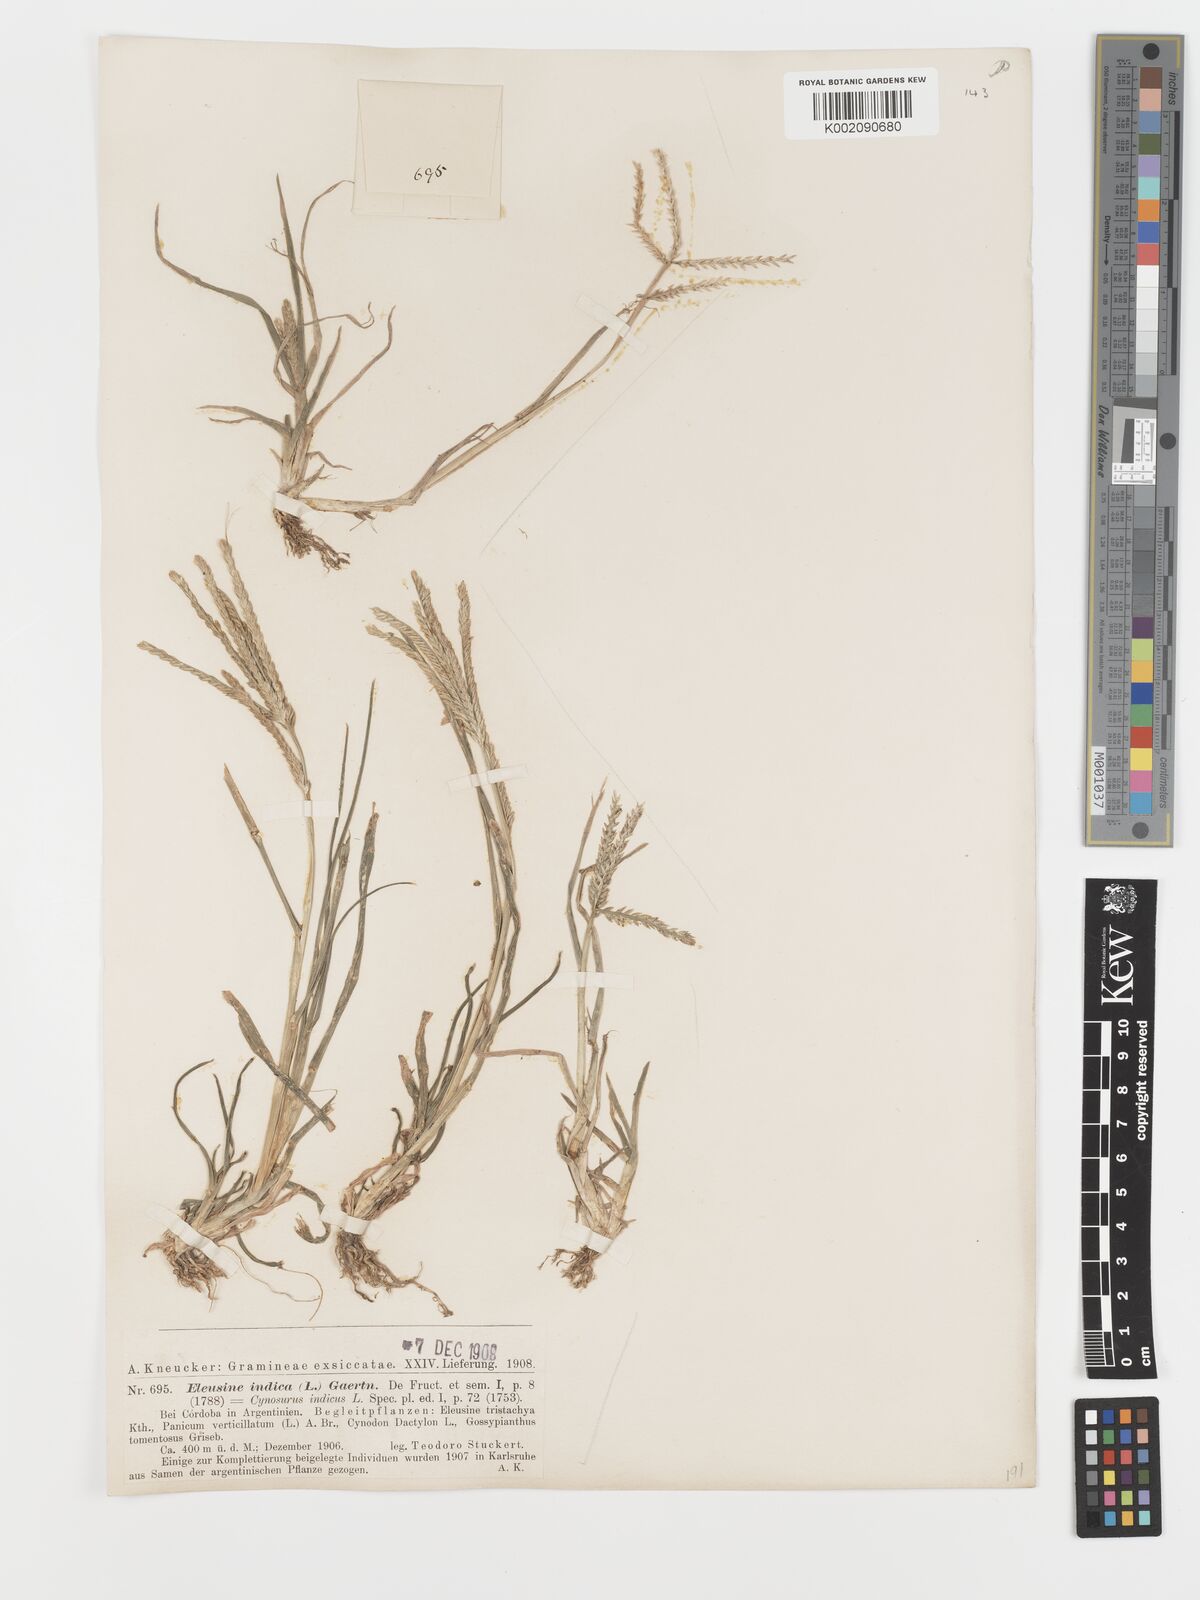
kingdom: Plantae
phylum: Tracheophyta
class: Liliopsida
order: Poales
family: Poaceae
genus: Eleusine
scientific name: Eleusine indica
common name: Yard-grass
